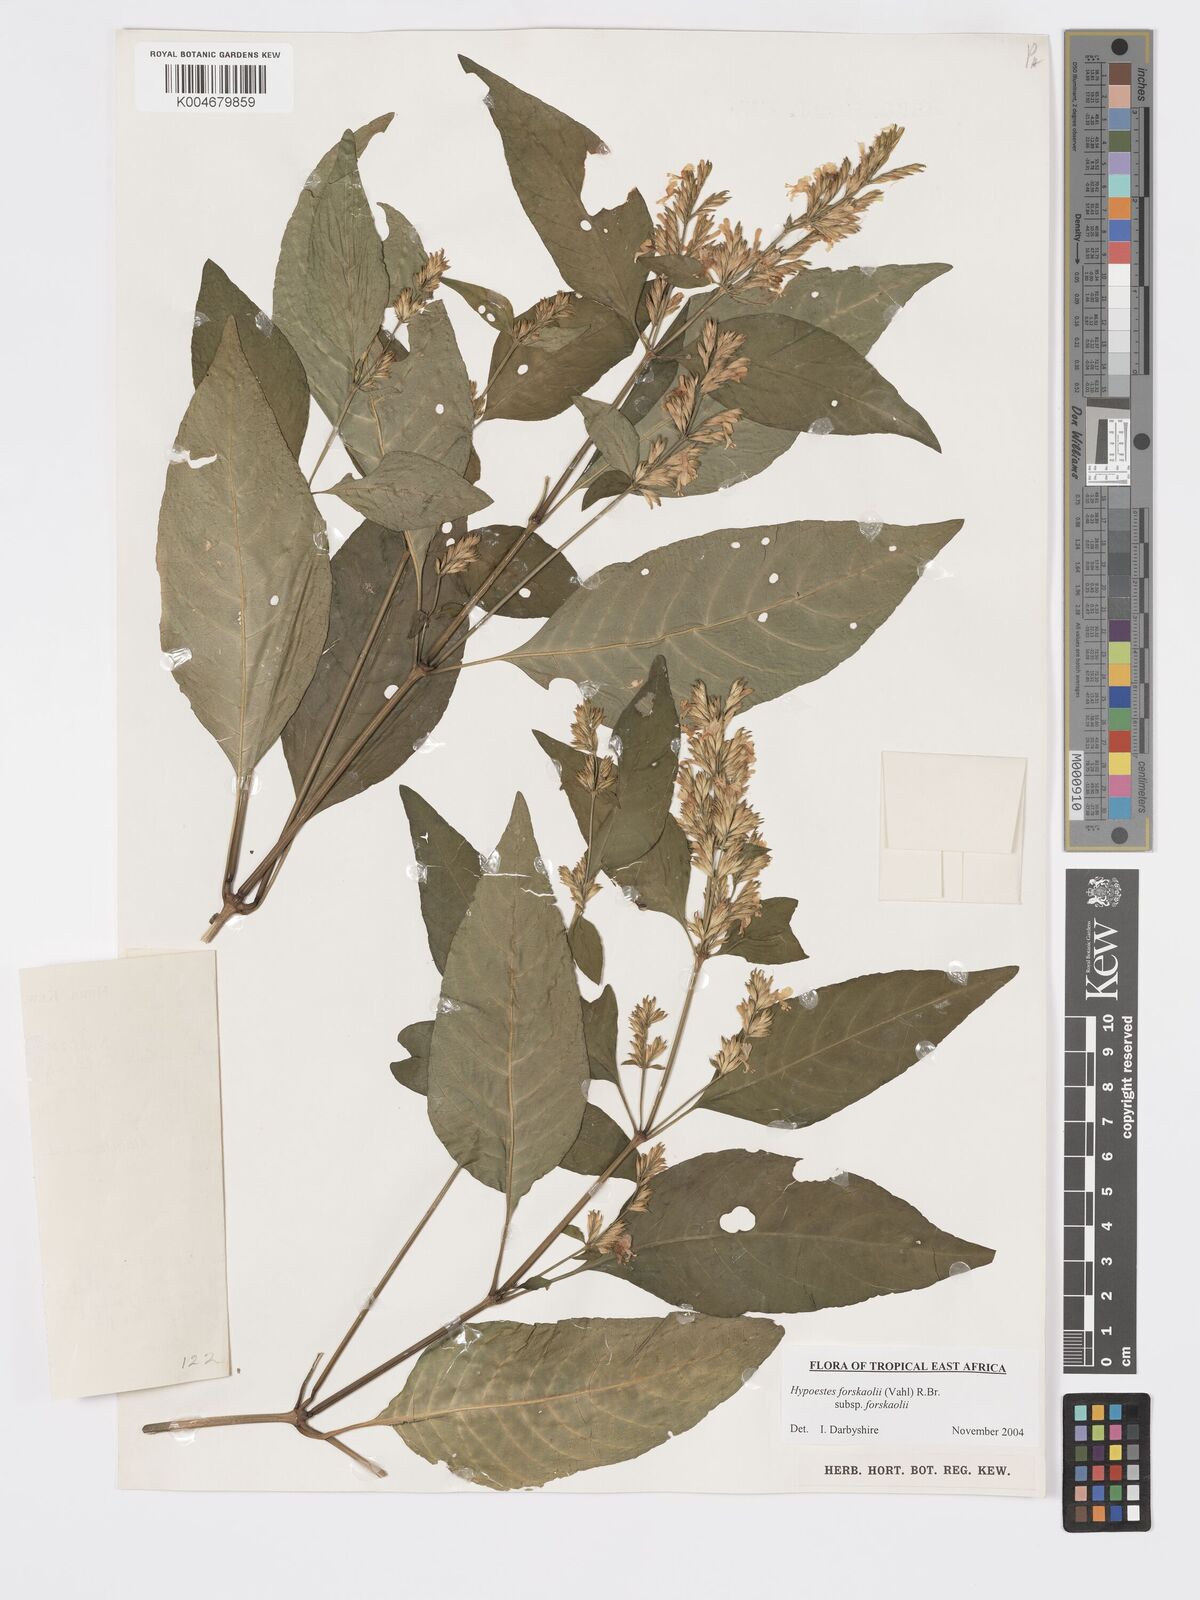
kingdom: Plantae
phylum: Tracheophyta
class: Magnoliopsida
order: Lamiales
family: Acanthaceae
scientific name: Acanthaceae
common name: Acanthaceae
